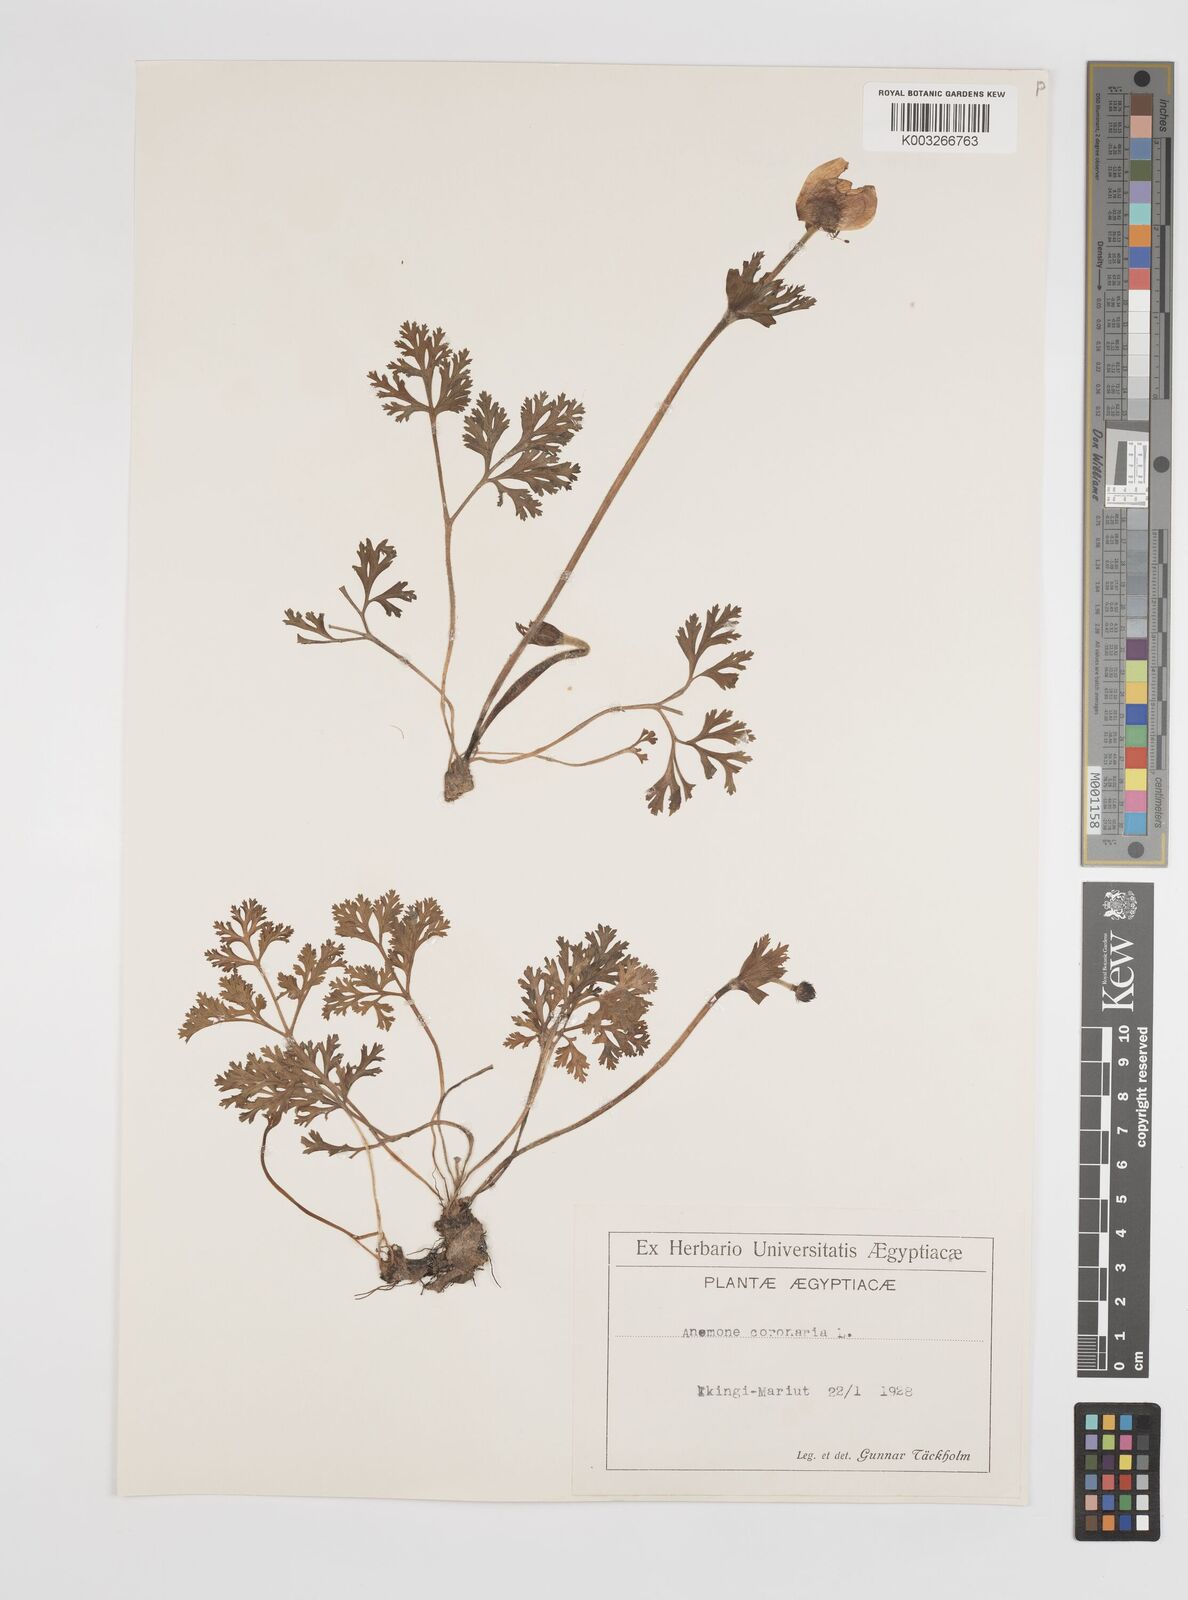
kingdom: Plantae
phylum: Tracheophyta
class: Magnoliopsida
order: Ranunculales
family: Ranunculaceae
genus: Anemone
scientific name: Anemone coronaria
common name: Poppy anemone
